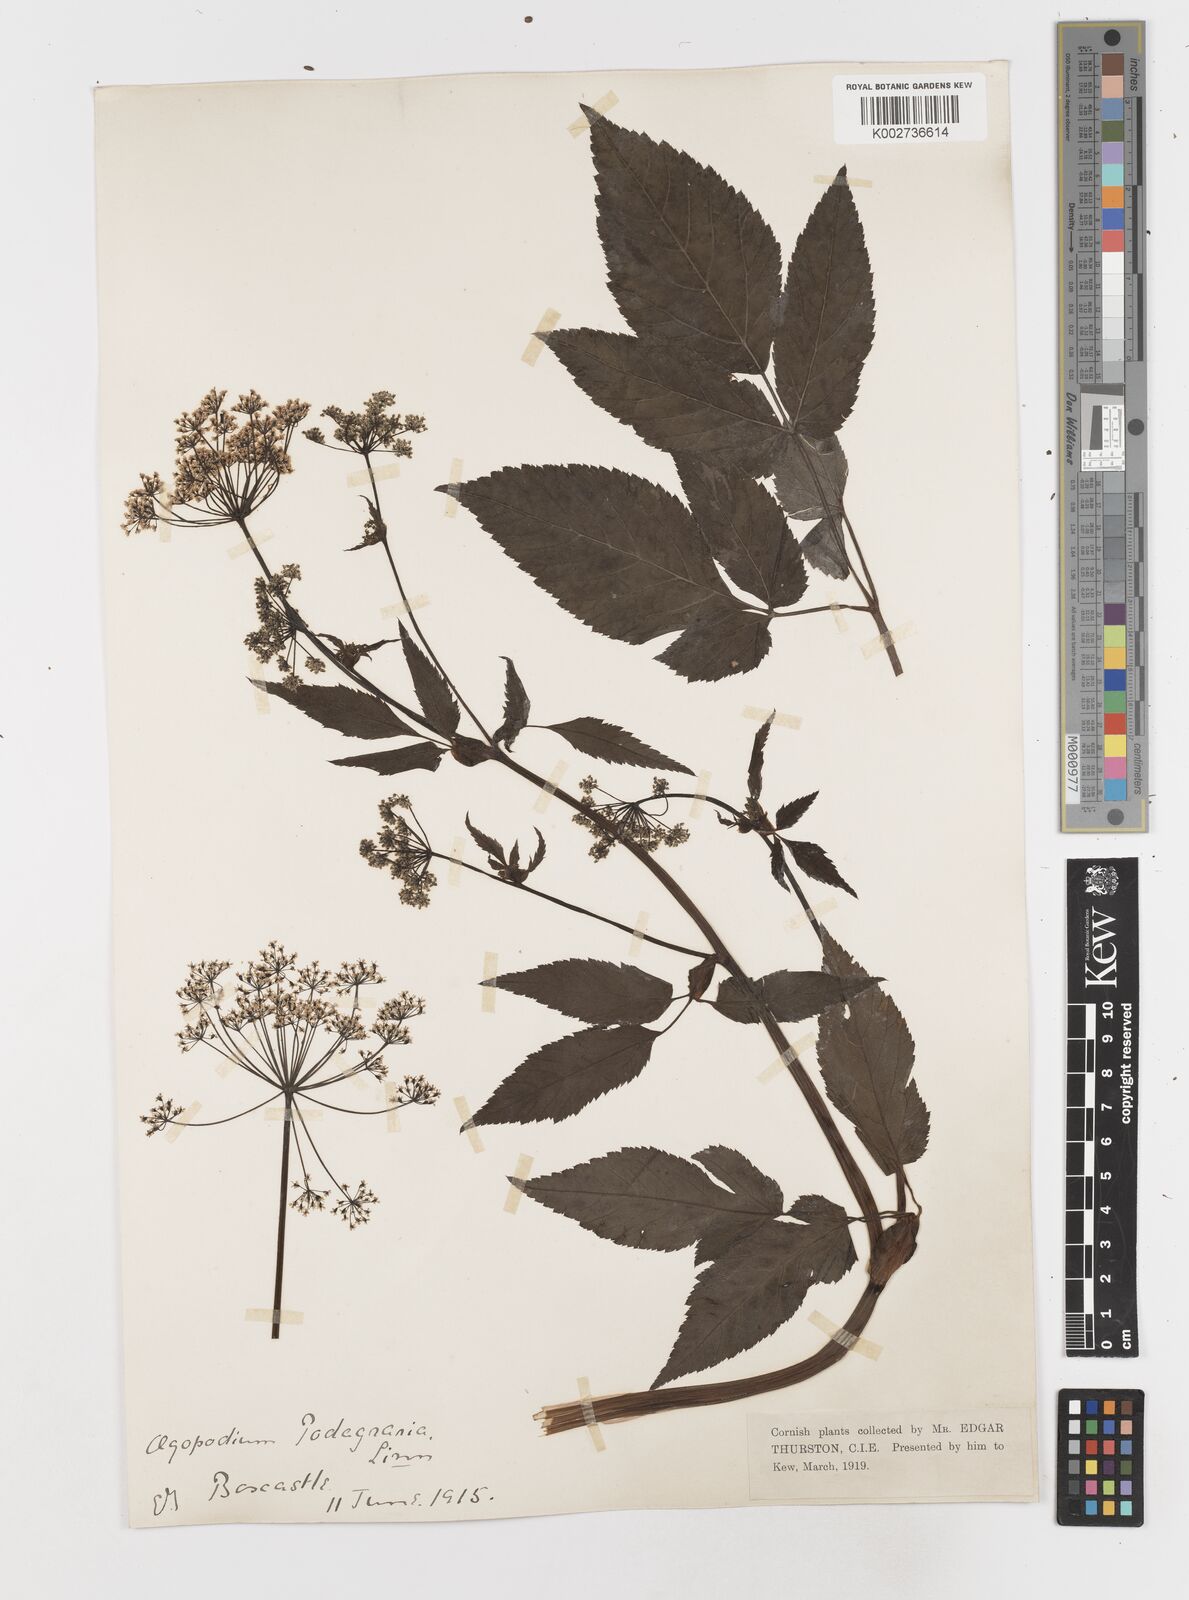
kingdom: Plantae
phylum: Tracheophyta
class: Magnoliopsida
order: Apiales
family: Apiaceae
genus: Aegopodium
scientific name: Aegopodium
